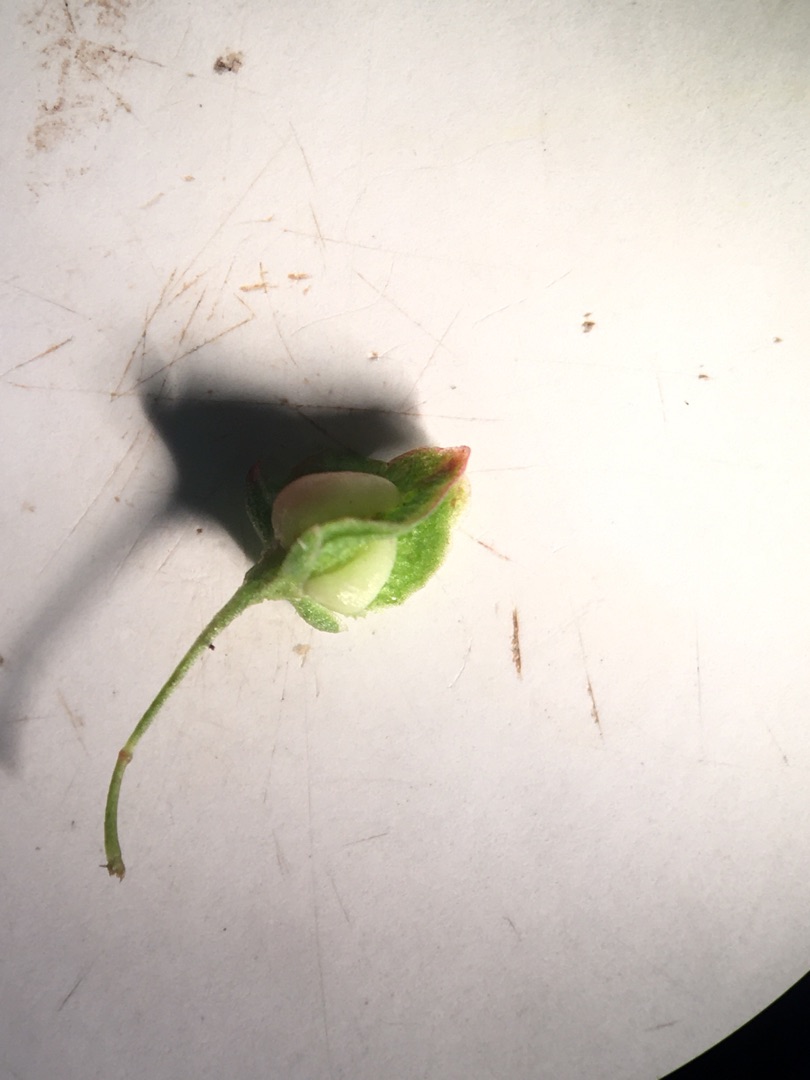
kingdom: Plantae
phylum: Tracheophyta
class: Magnoliopsida
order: Caryophyllales
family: Polygonaceae
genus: Rumex
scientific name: Rumex crispus
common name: Kruset skræppe
